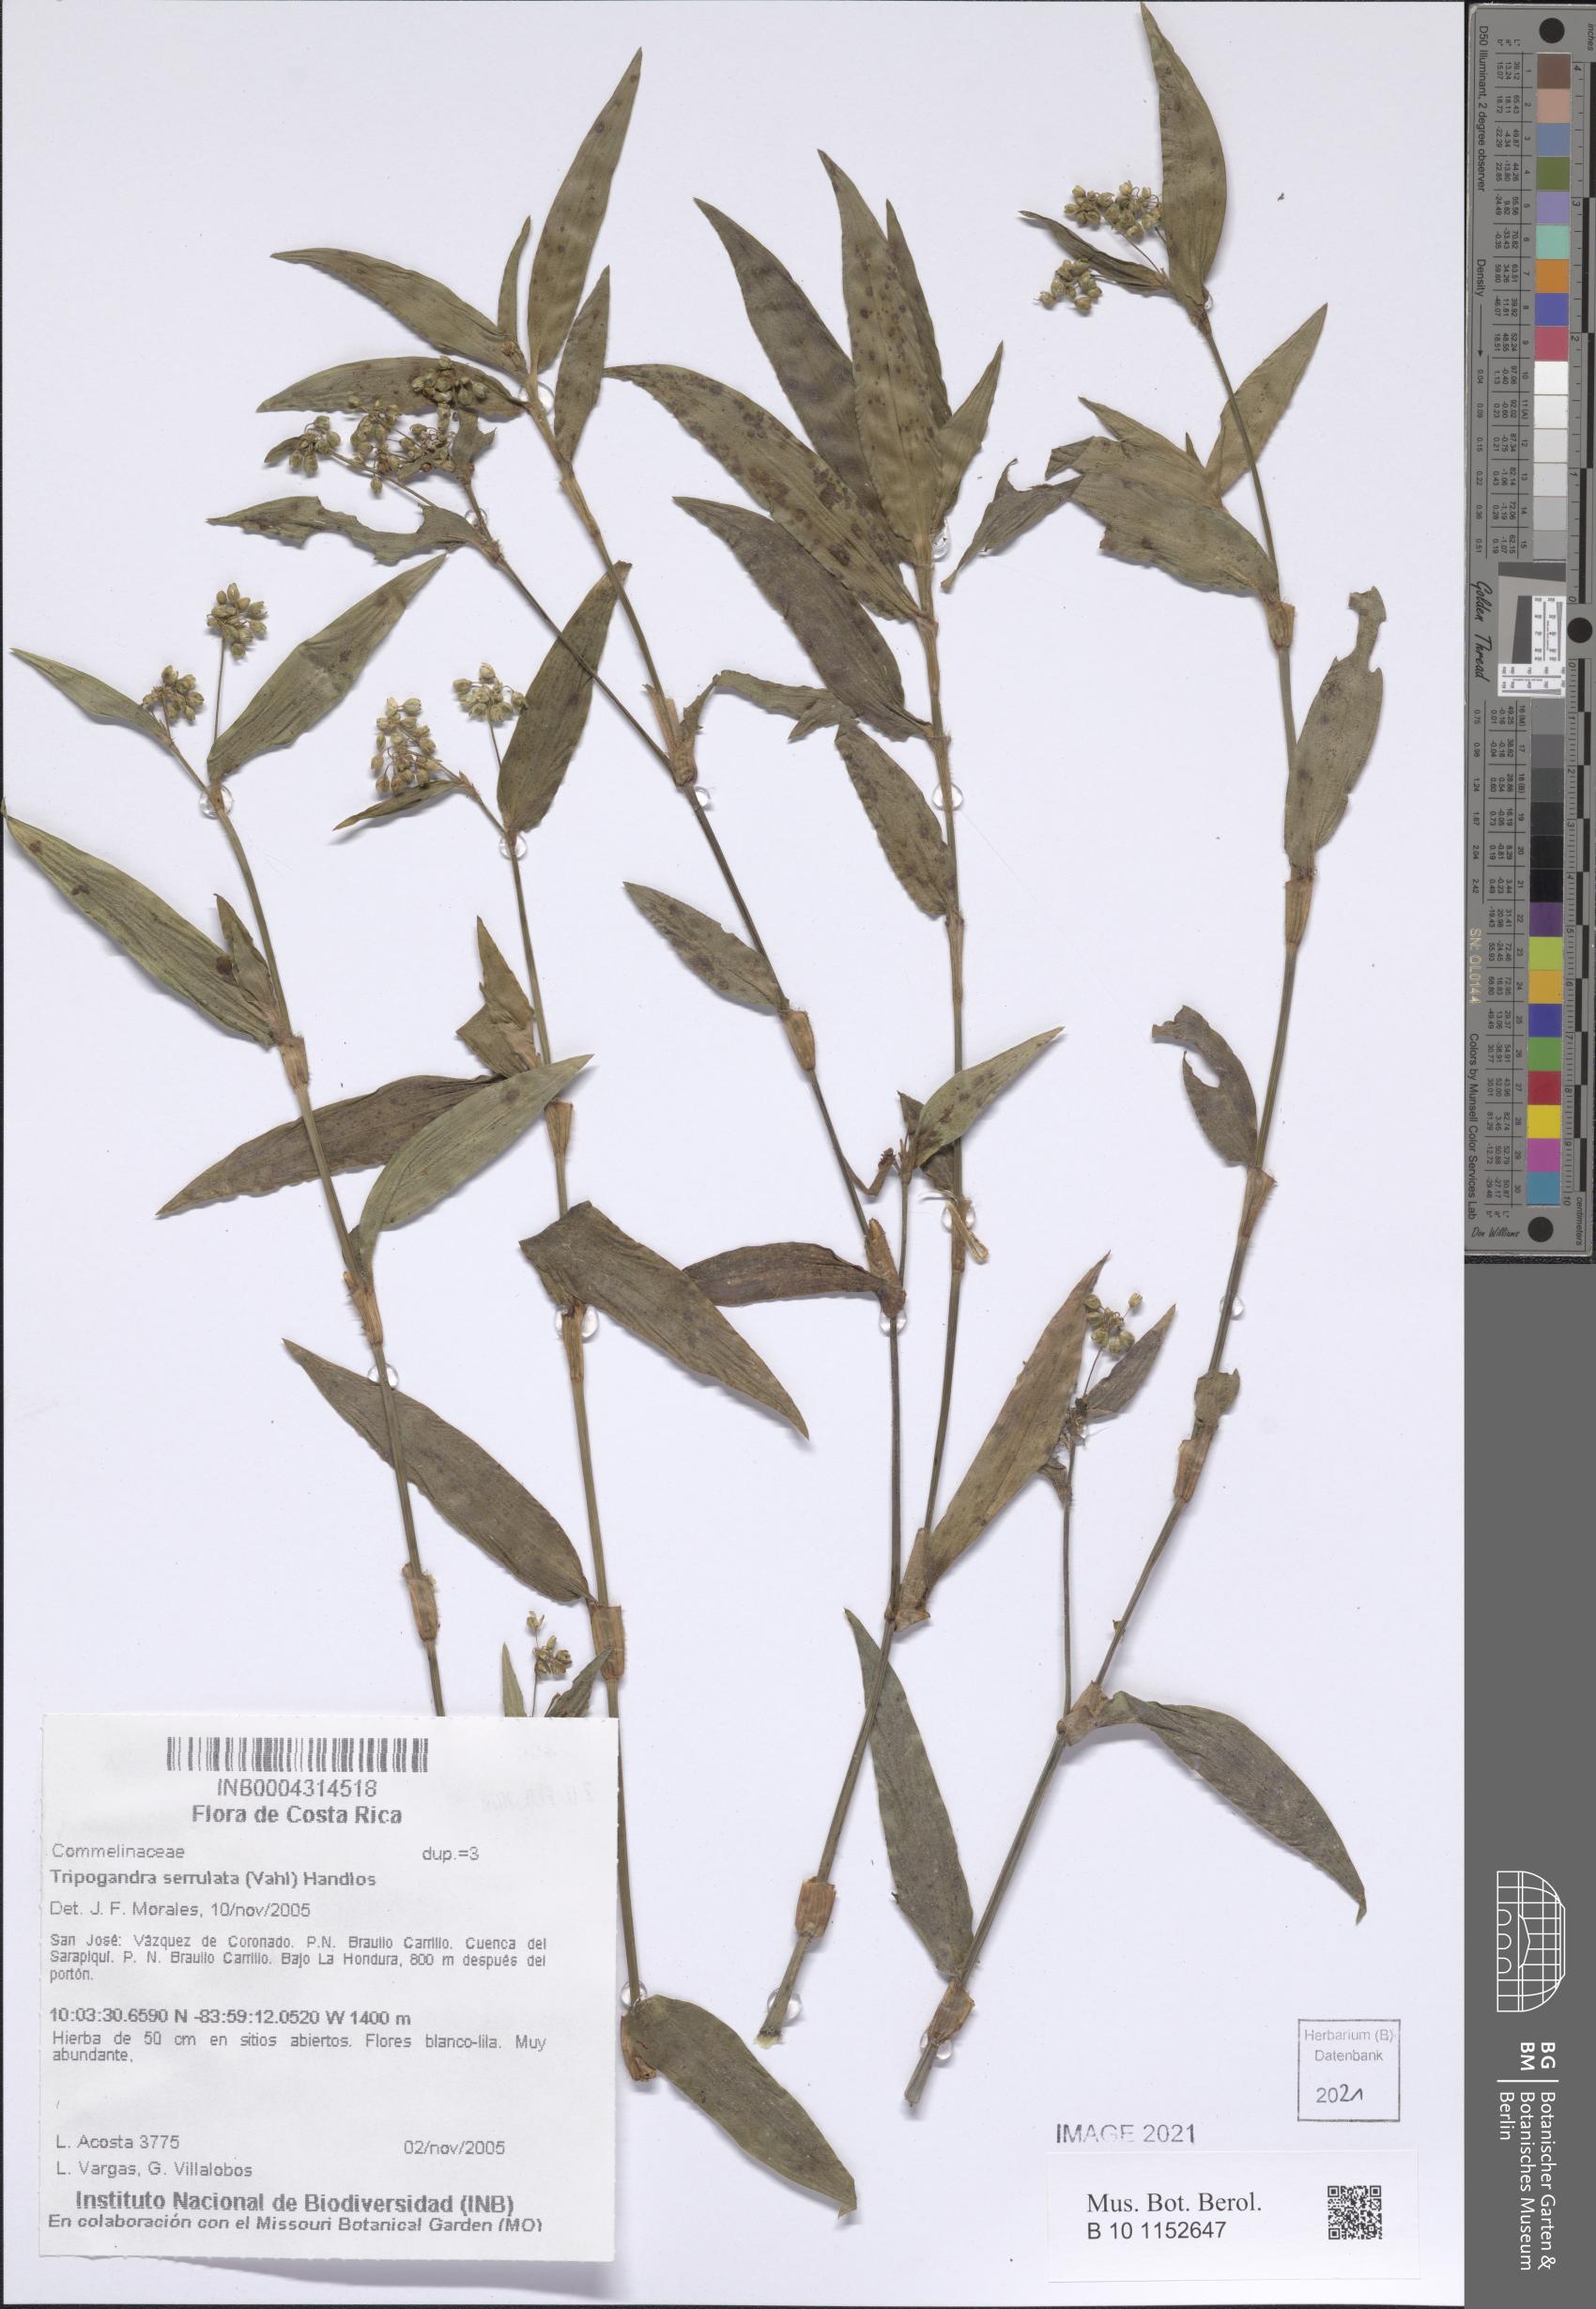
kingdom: Plantae
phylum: Tracheophyta
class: Liliopsida
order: Commelinales
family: Commelinaceae
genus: Callisia
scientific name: Callisia serrulata
